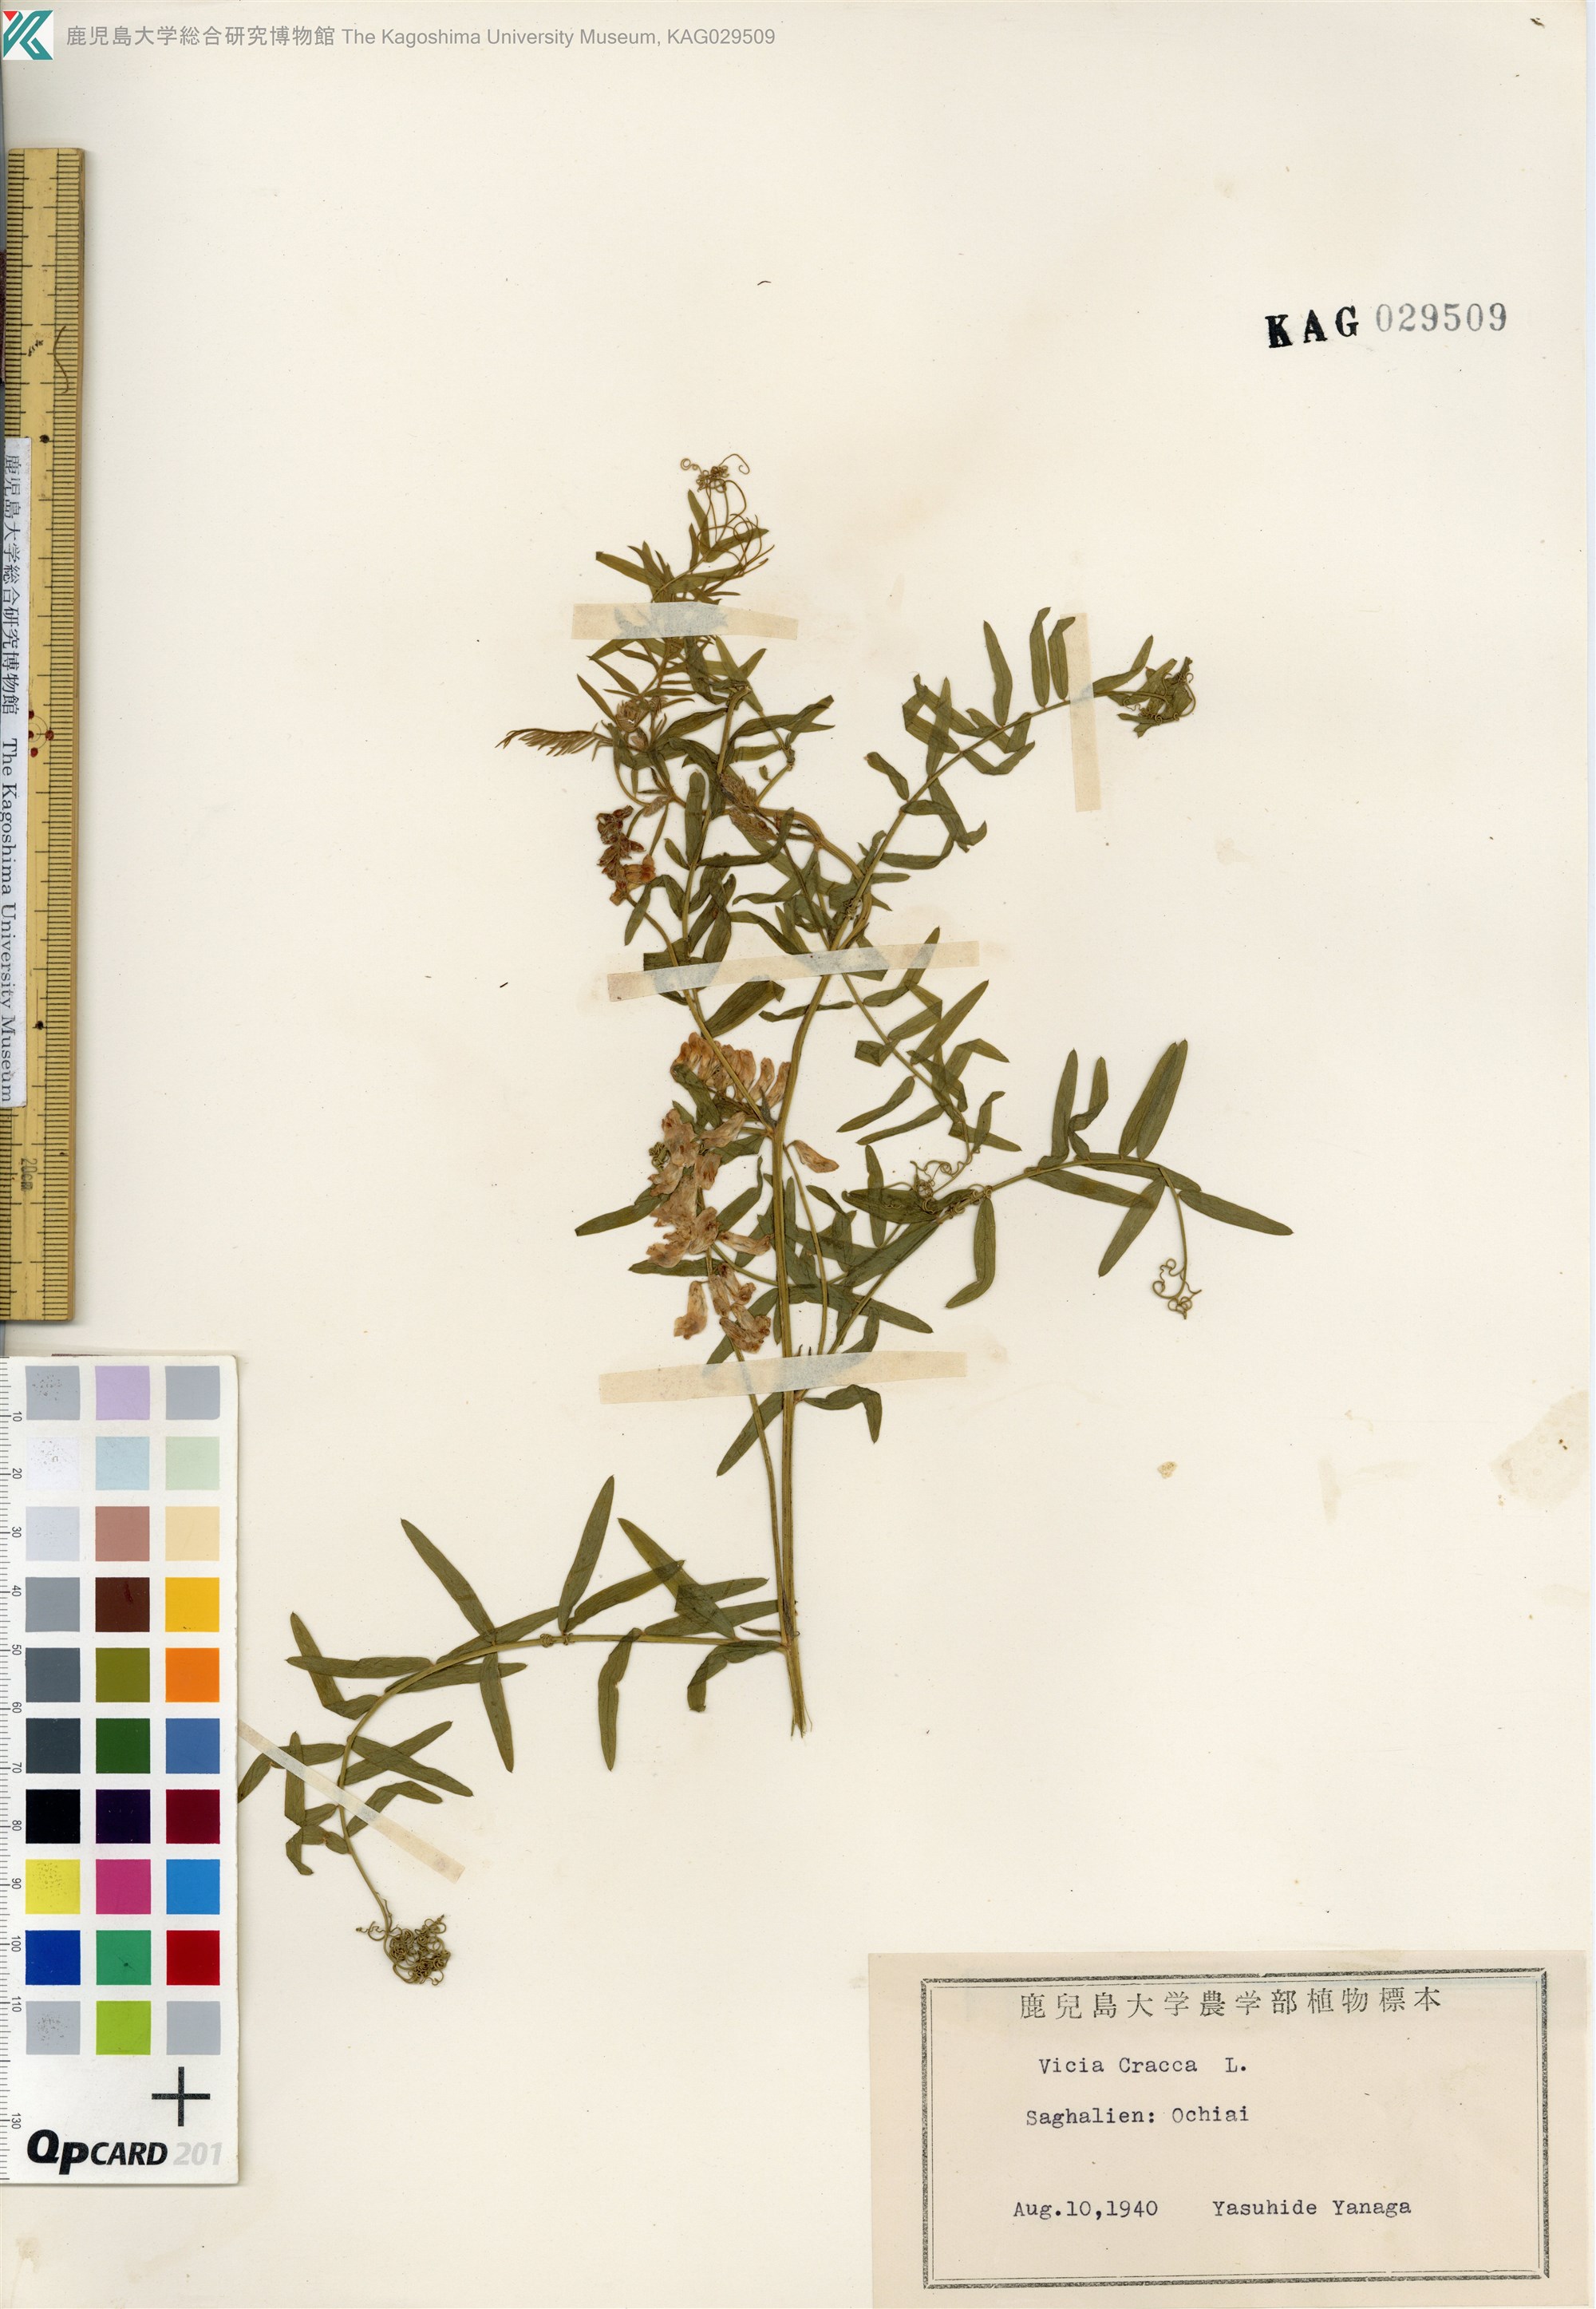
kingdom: Plantae
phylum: Tracheophyta
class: Magnoliopsida
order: Fabales
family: Fabaceae
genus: Vicia
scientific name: Vicia cracca
